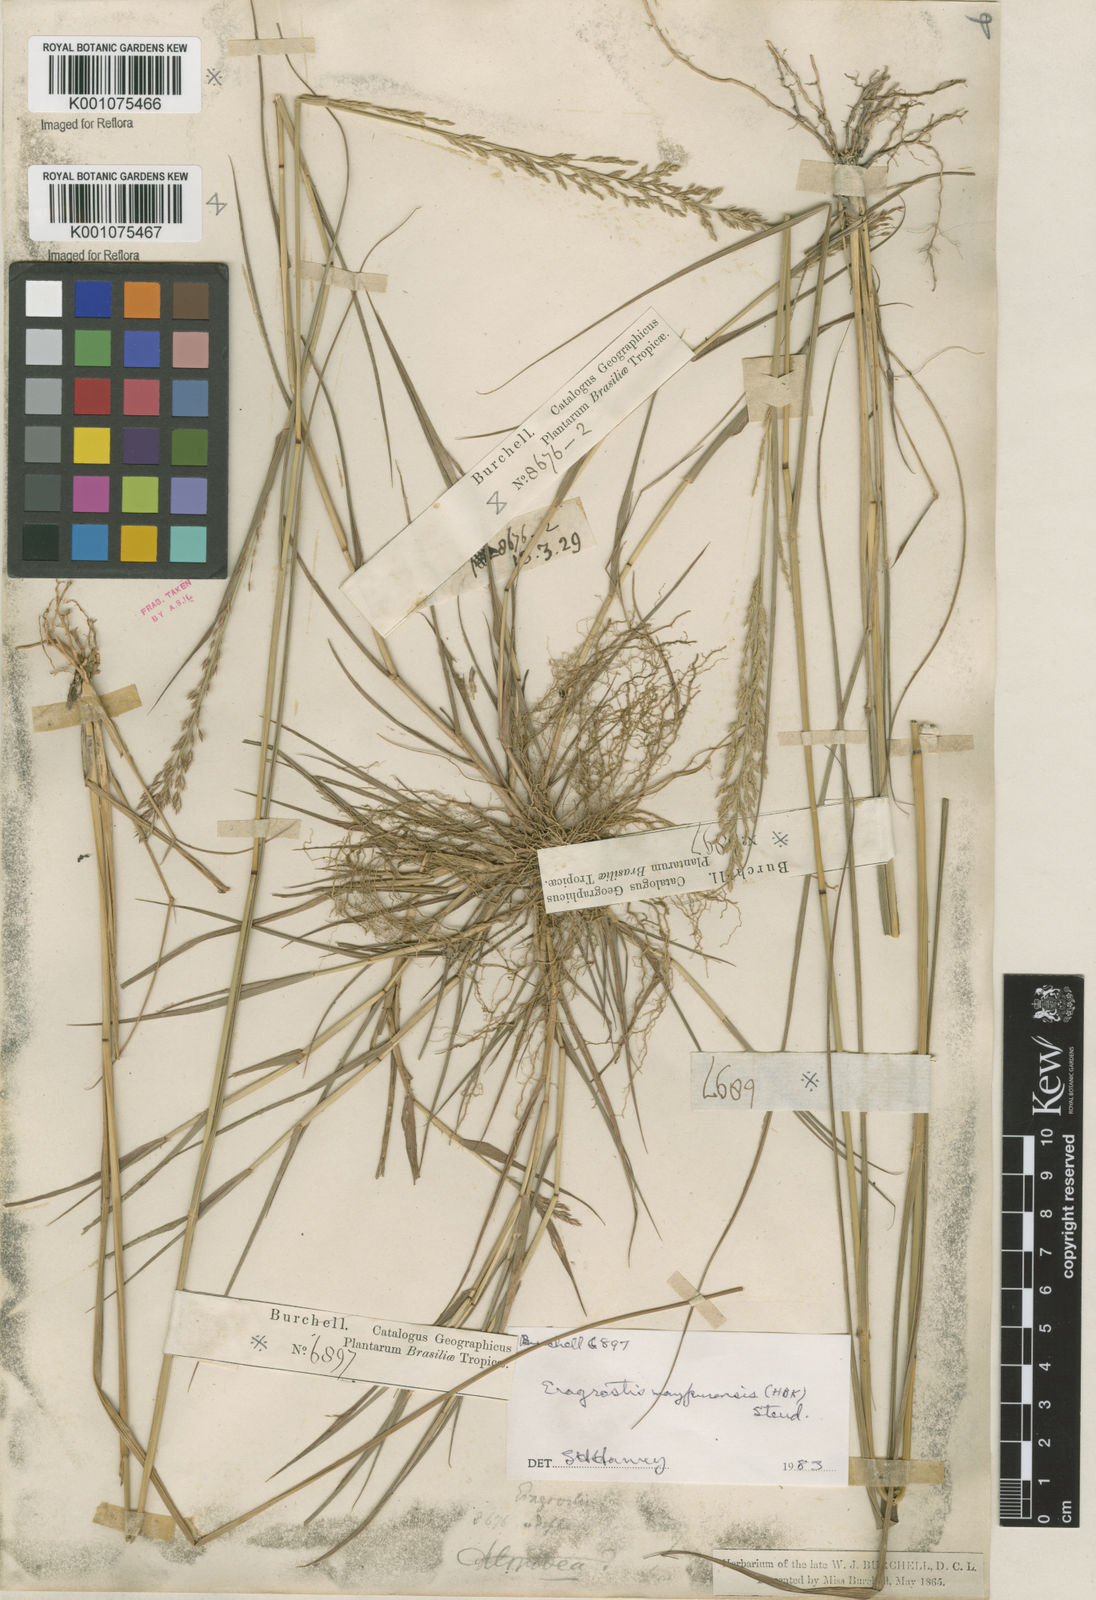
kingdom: Plantae
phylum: Tracheophyta
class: Liliopsida
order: Poales
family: Poaceae
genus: Eragrostis
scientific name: Eragrostis maypurensis
